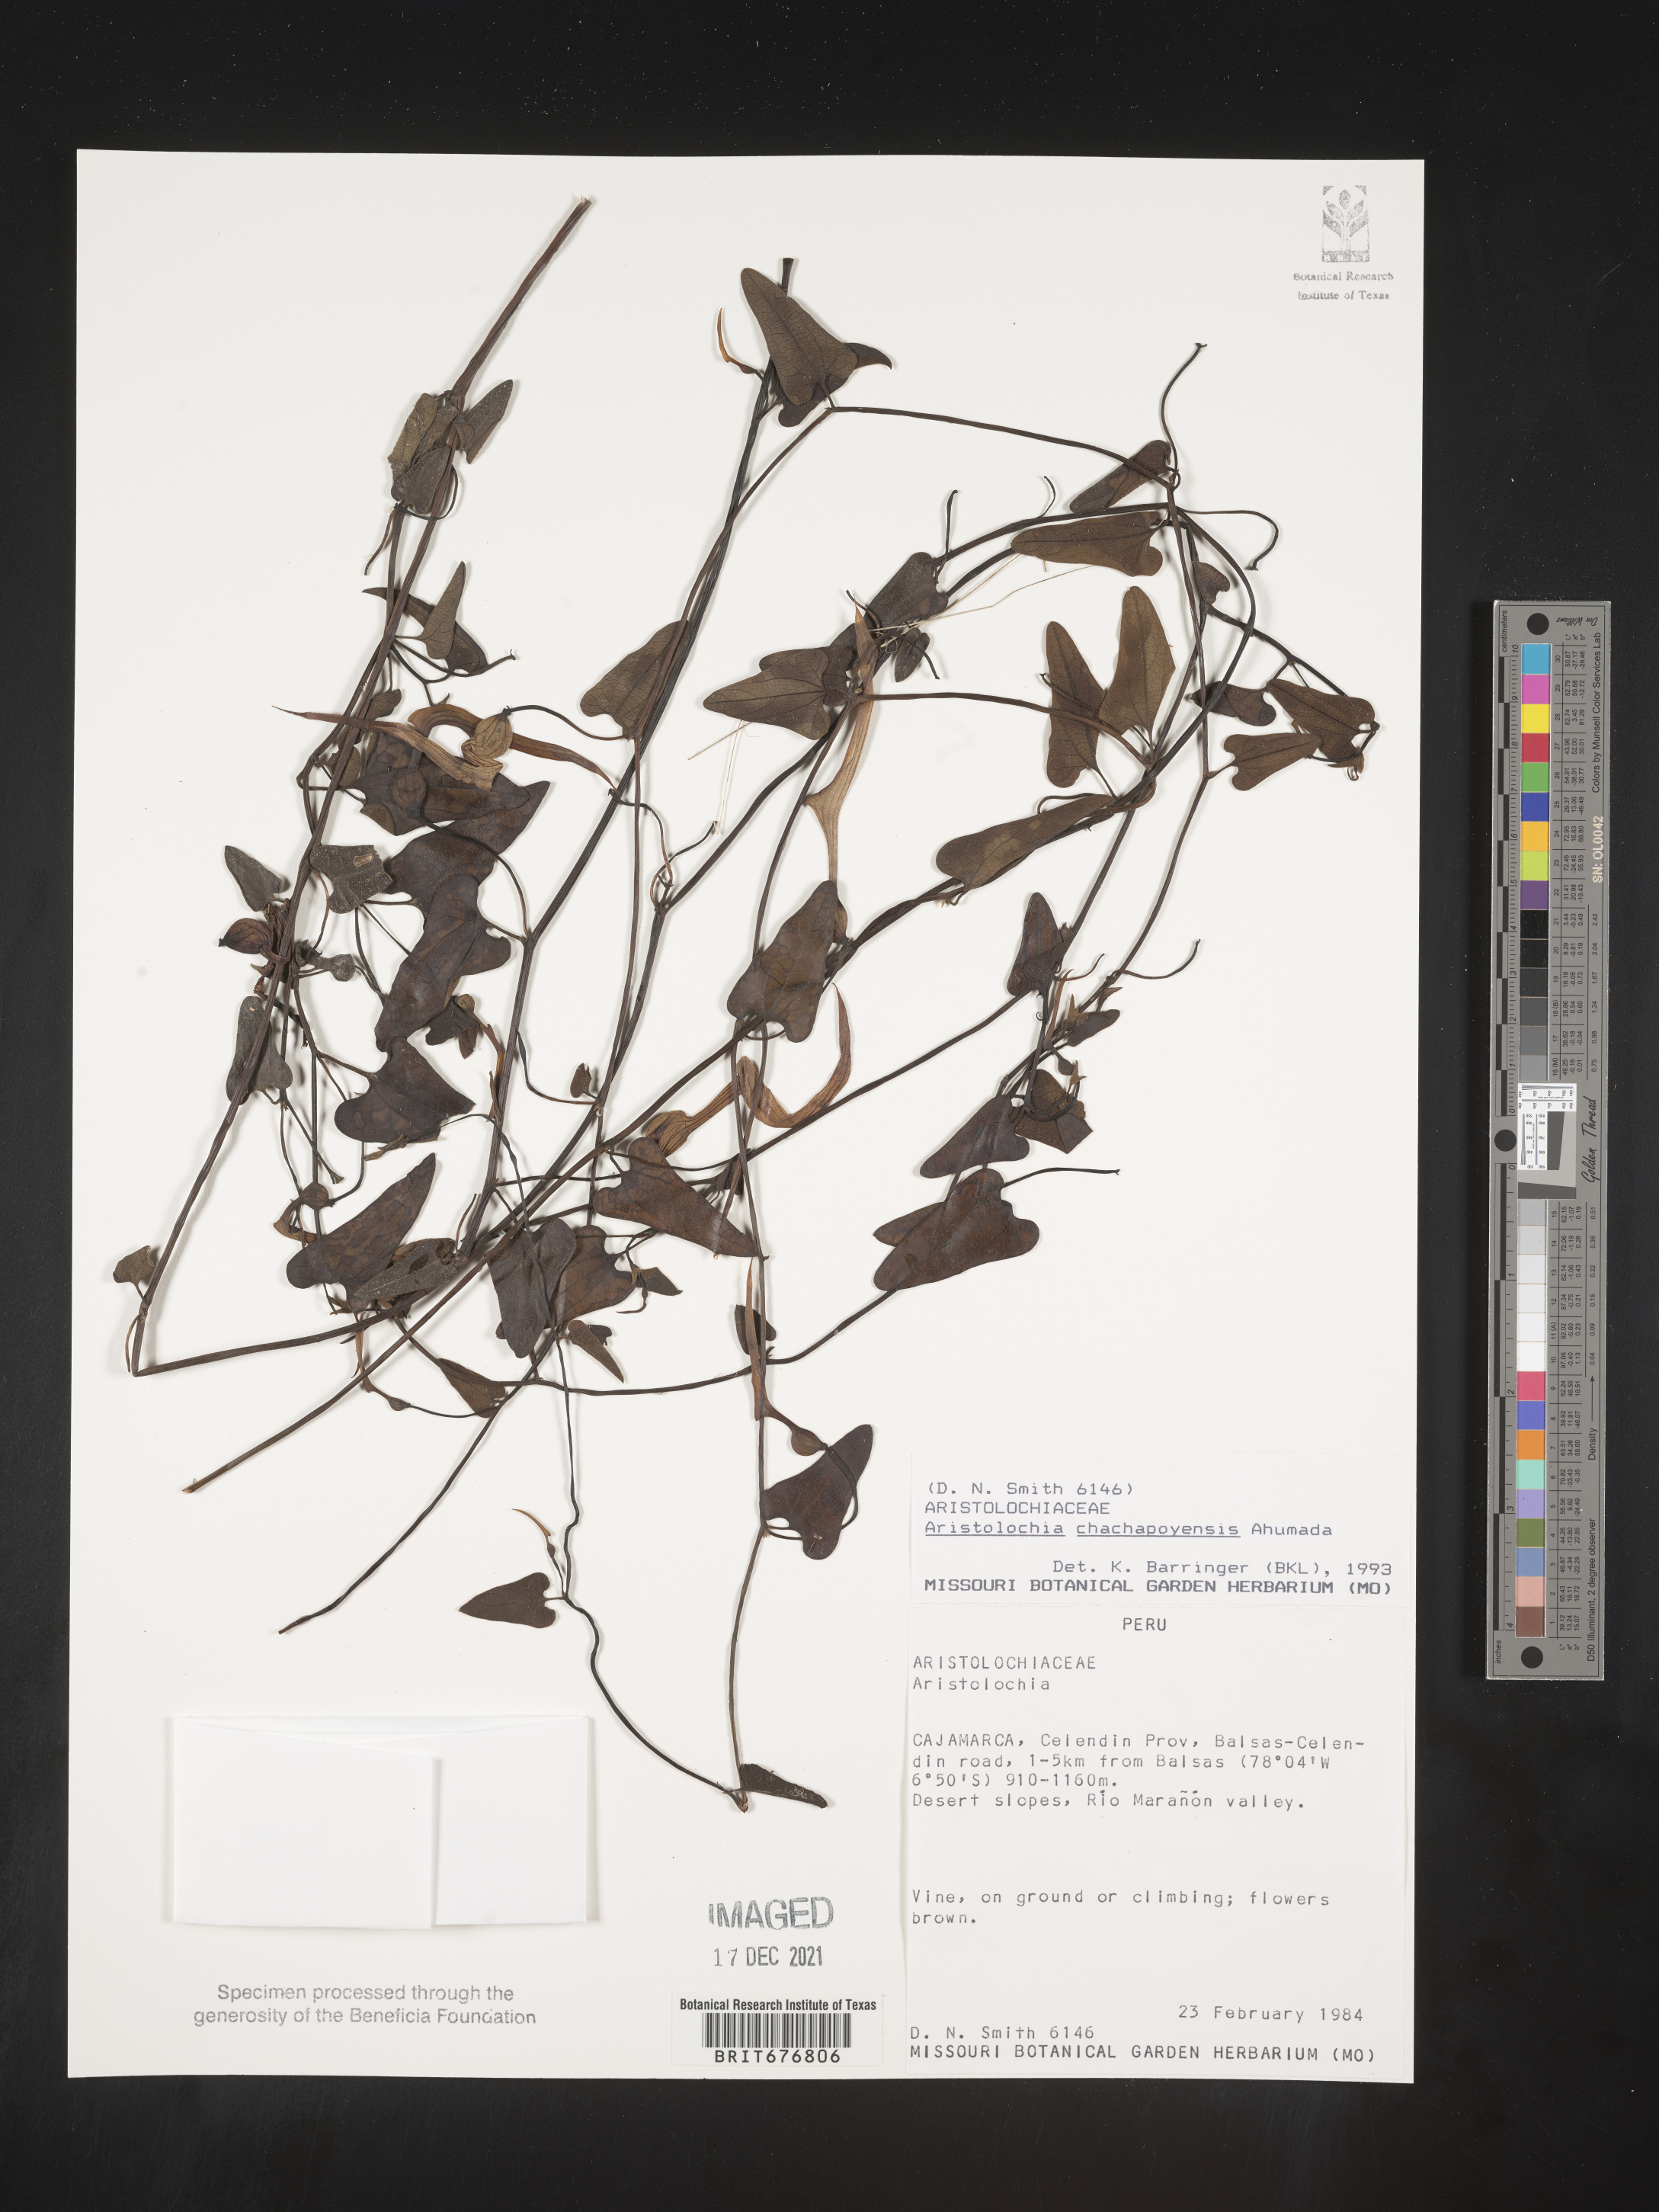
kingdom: Plantae
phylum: Tracheophyta
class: Magnoliopsida
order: Piperales
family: Aristolochiaceae
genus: Aristolochia
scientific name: Aristolochia
